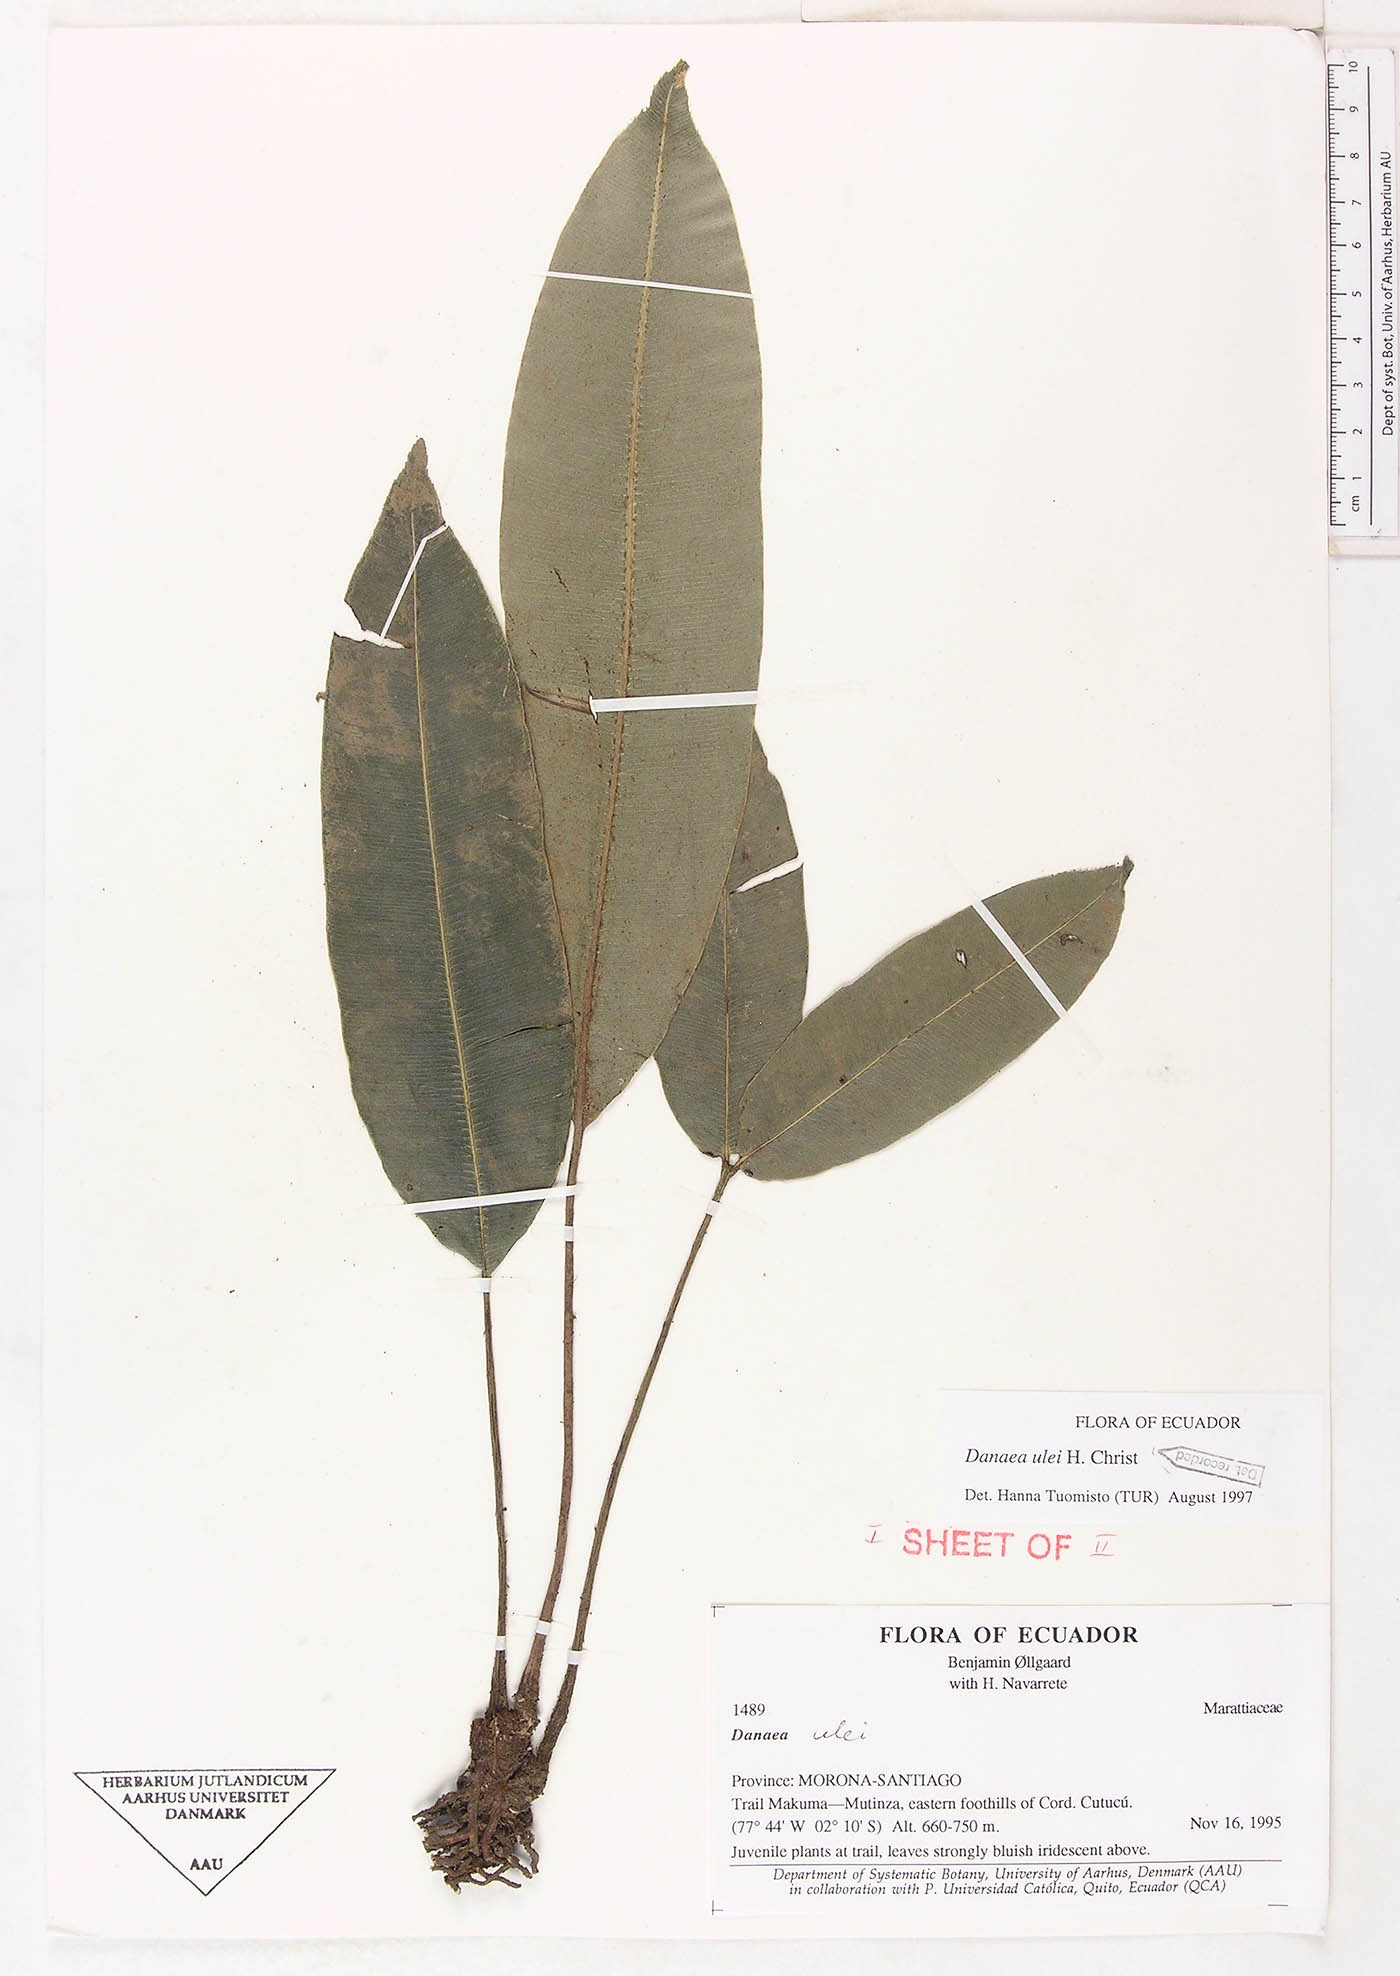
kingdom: Plantae
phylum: Tracheophyta
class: Polypodiopsida
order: Marattiales
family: Marattiaceae
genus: Danaea
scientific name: Danaea cartilaginea
